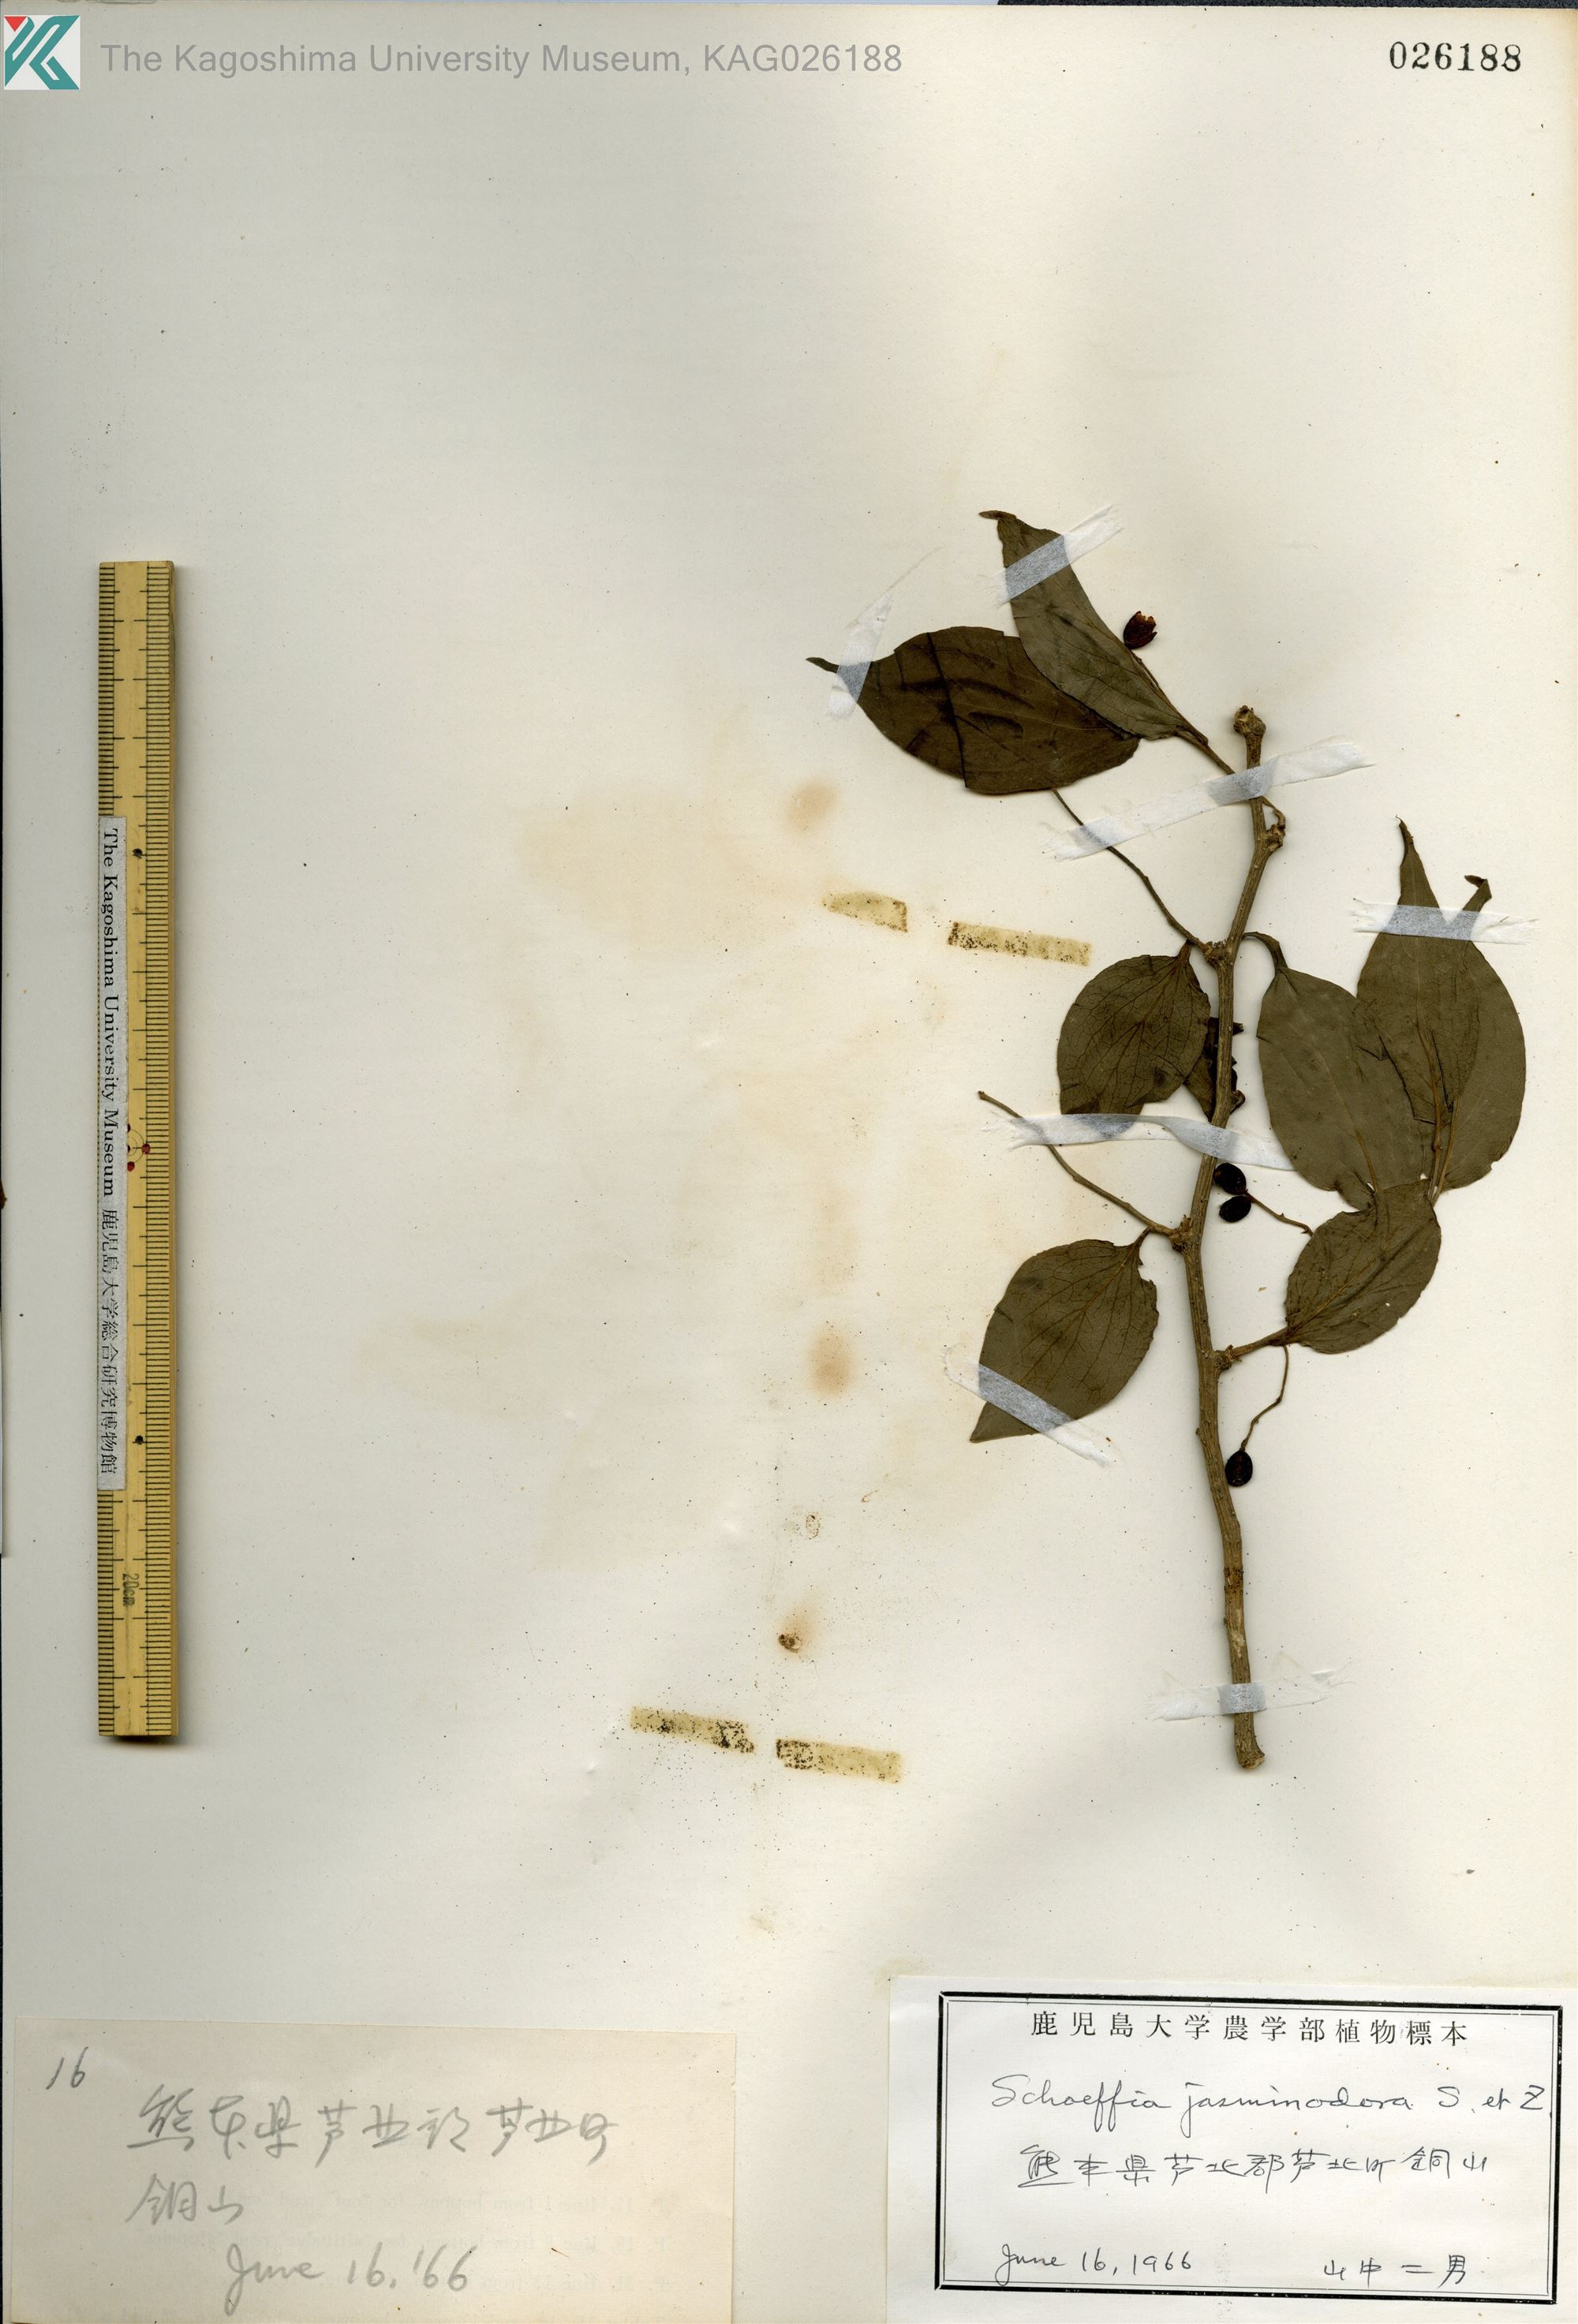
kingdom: Plantae
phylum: Tracheophyta
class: Magnoliopsida
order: Santalales
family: Schoepfiaceae
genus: Schoepfia
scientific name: Schoepfia jasminodora
